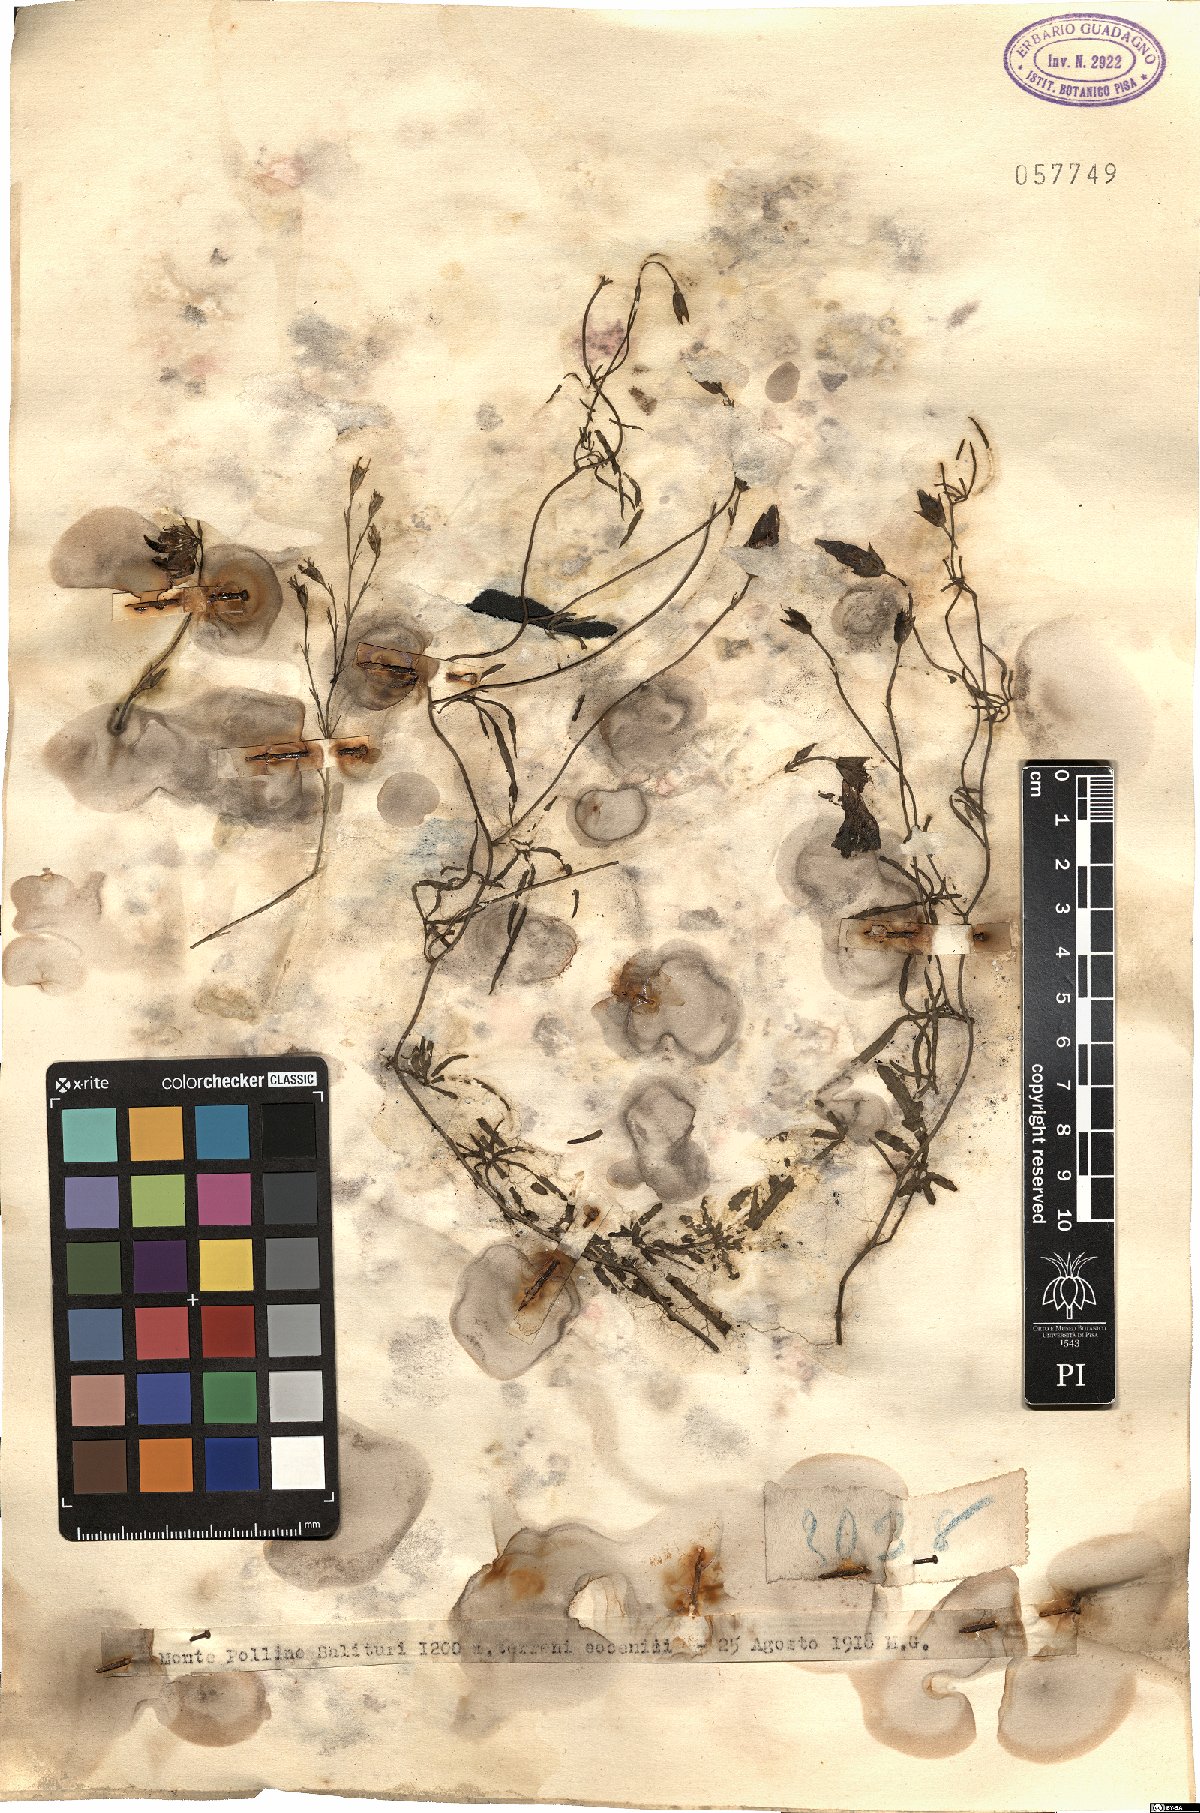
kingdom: Plantae
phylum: Tracheophyta
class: Magnoliopsida
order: Solanales
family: Convolvulaceae
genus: Convolvulus
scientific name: Convolvulus
